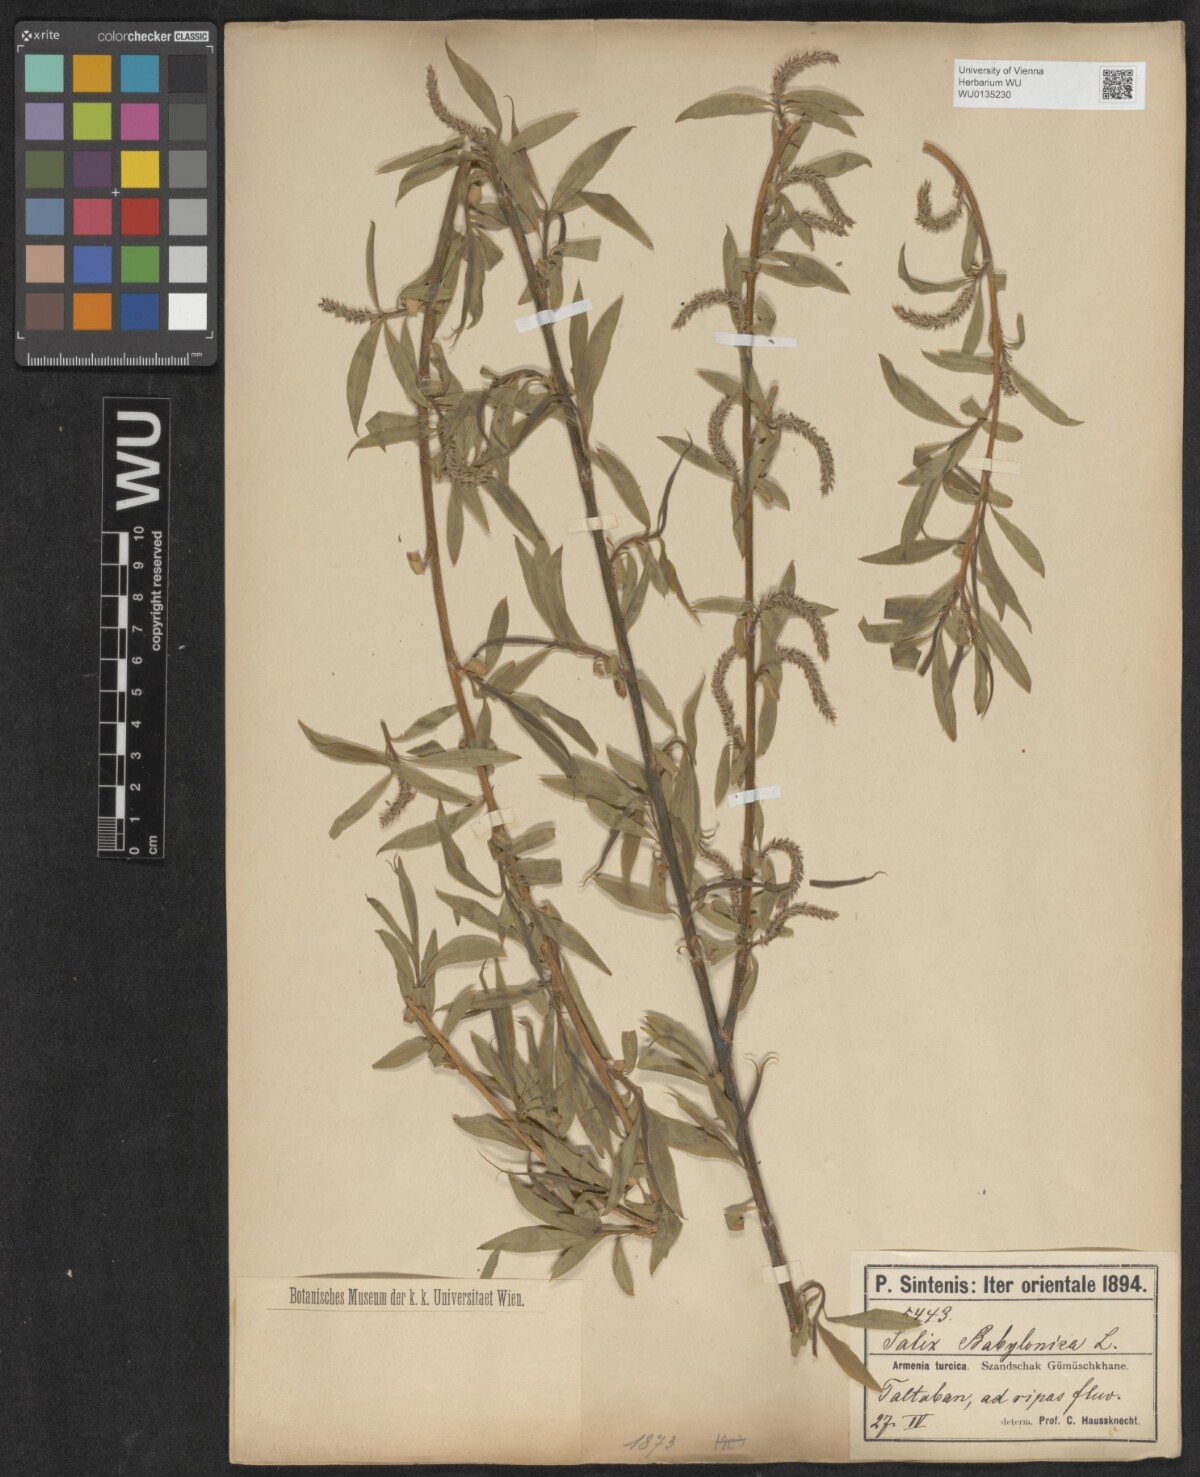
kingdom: Plantae
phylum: Tracheophyta
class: Magnoliopsida
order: Malpighiales
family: Salicaceae
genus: Salix
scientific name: Salix babylonica
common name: Weeping willow
